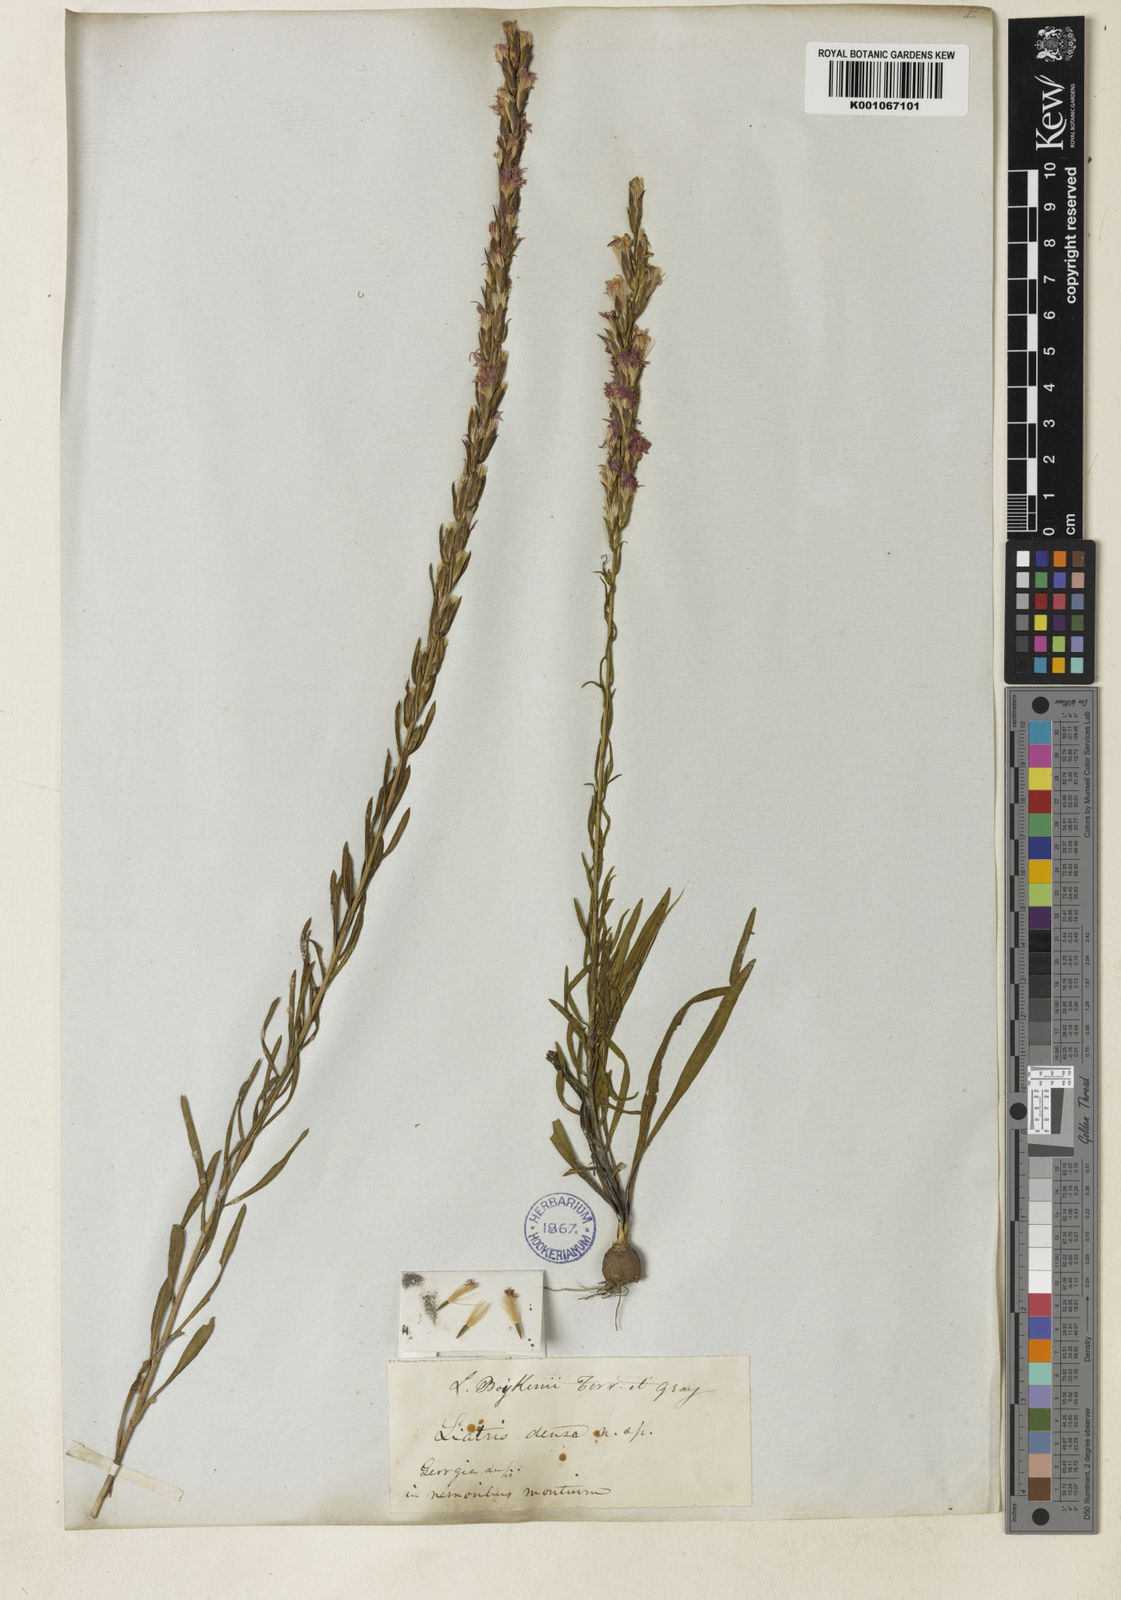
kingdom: Plantae
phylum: Tracheophyta
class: Magnoliopsida
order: Asterales
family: Asteraceae
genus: Liatris
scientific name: Liatris chapmanii
